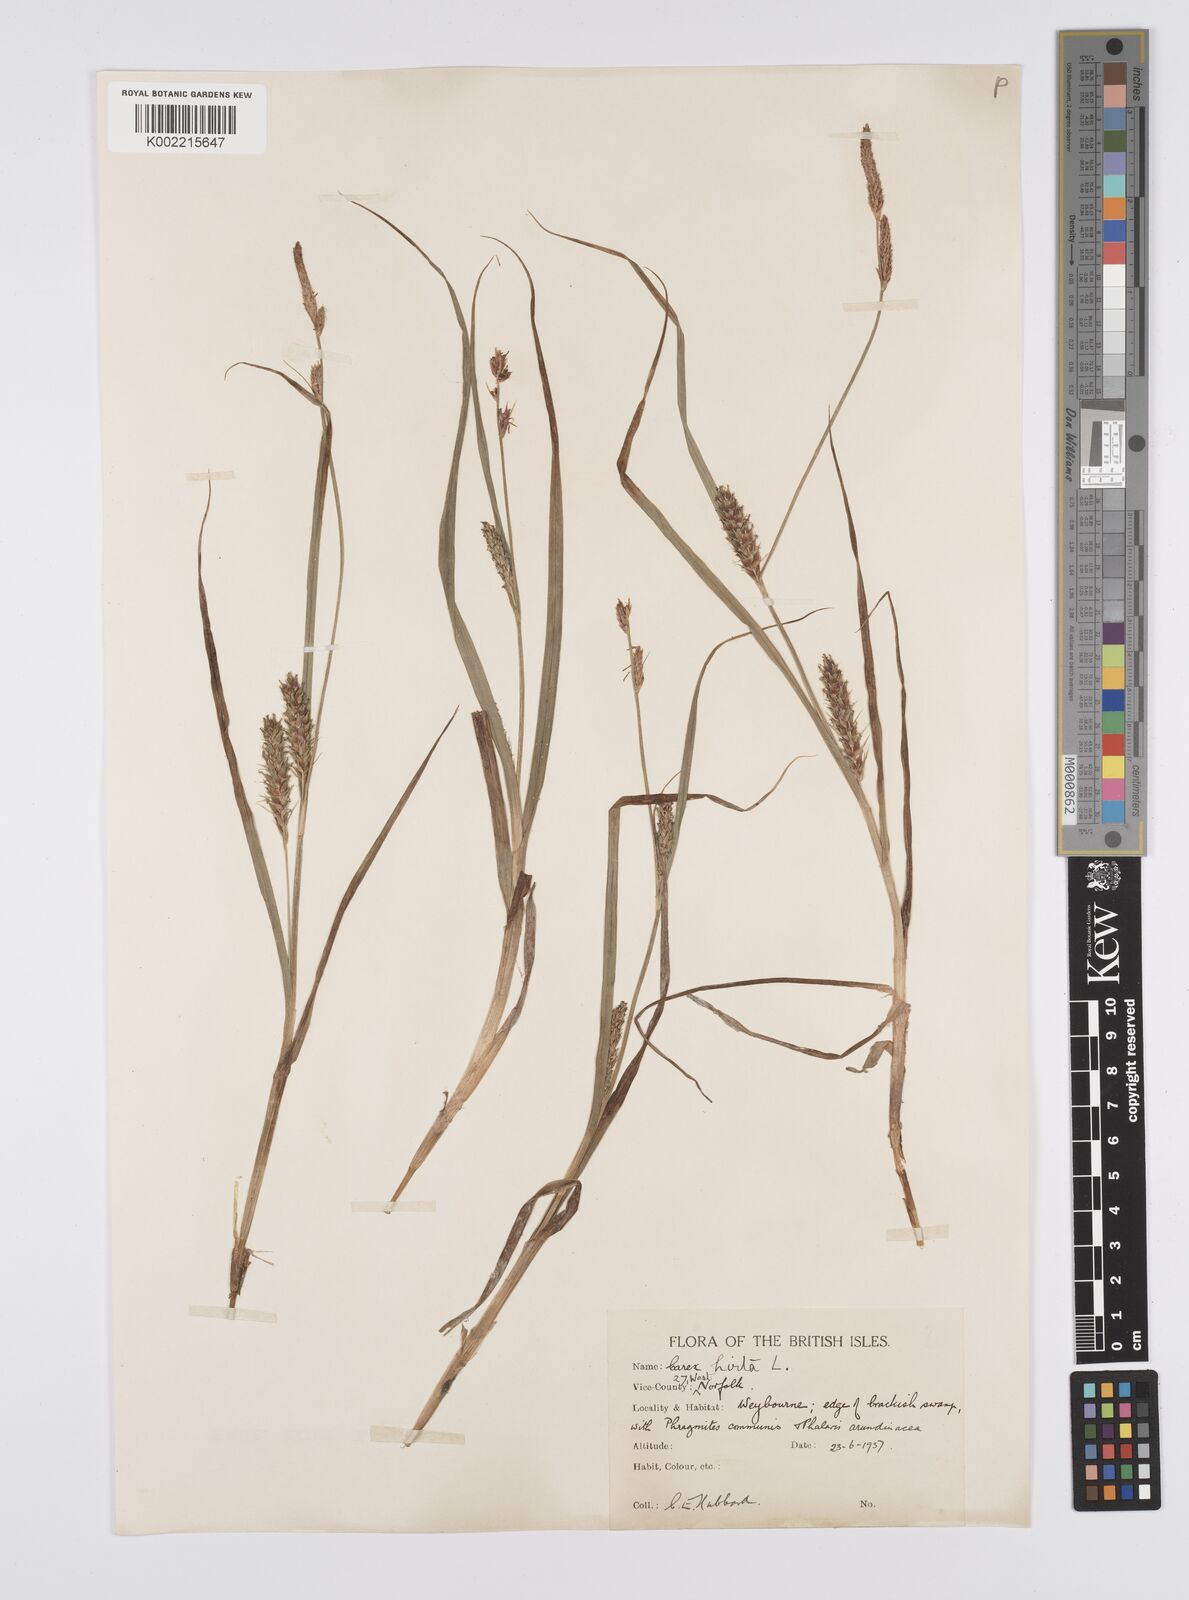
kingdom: Plantae
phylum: Tracheophyta
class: Liliopsida
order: Poales
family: Cyperaceae
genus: Carex
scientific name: Carex hirta
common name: Hairy sedge
